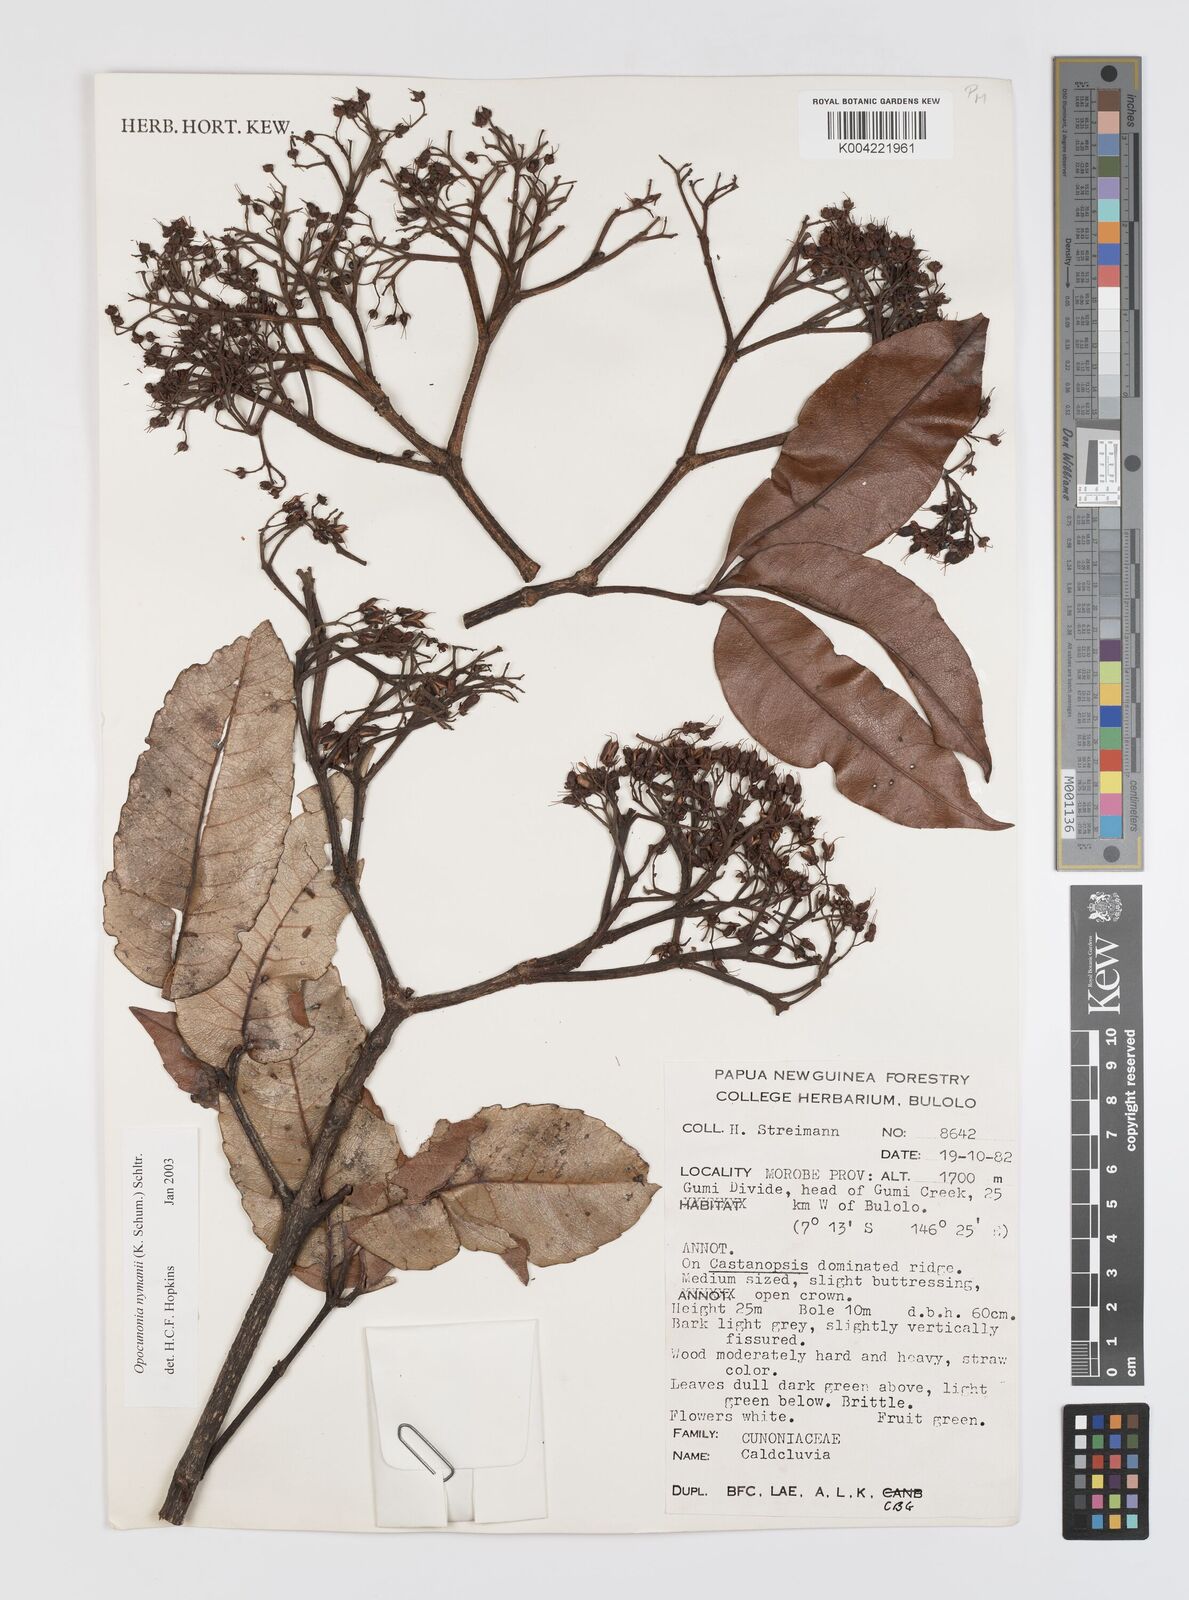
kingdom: Plantae
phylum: Tracheophyta
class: Magnoliopsida
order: Oxalidales
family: Cunoniaceae
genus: Opocunonia
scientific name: Opocunonia nymanii
